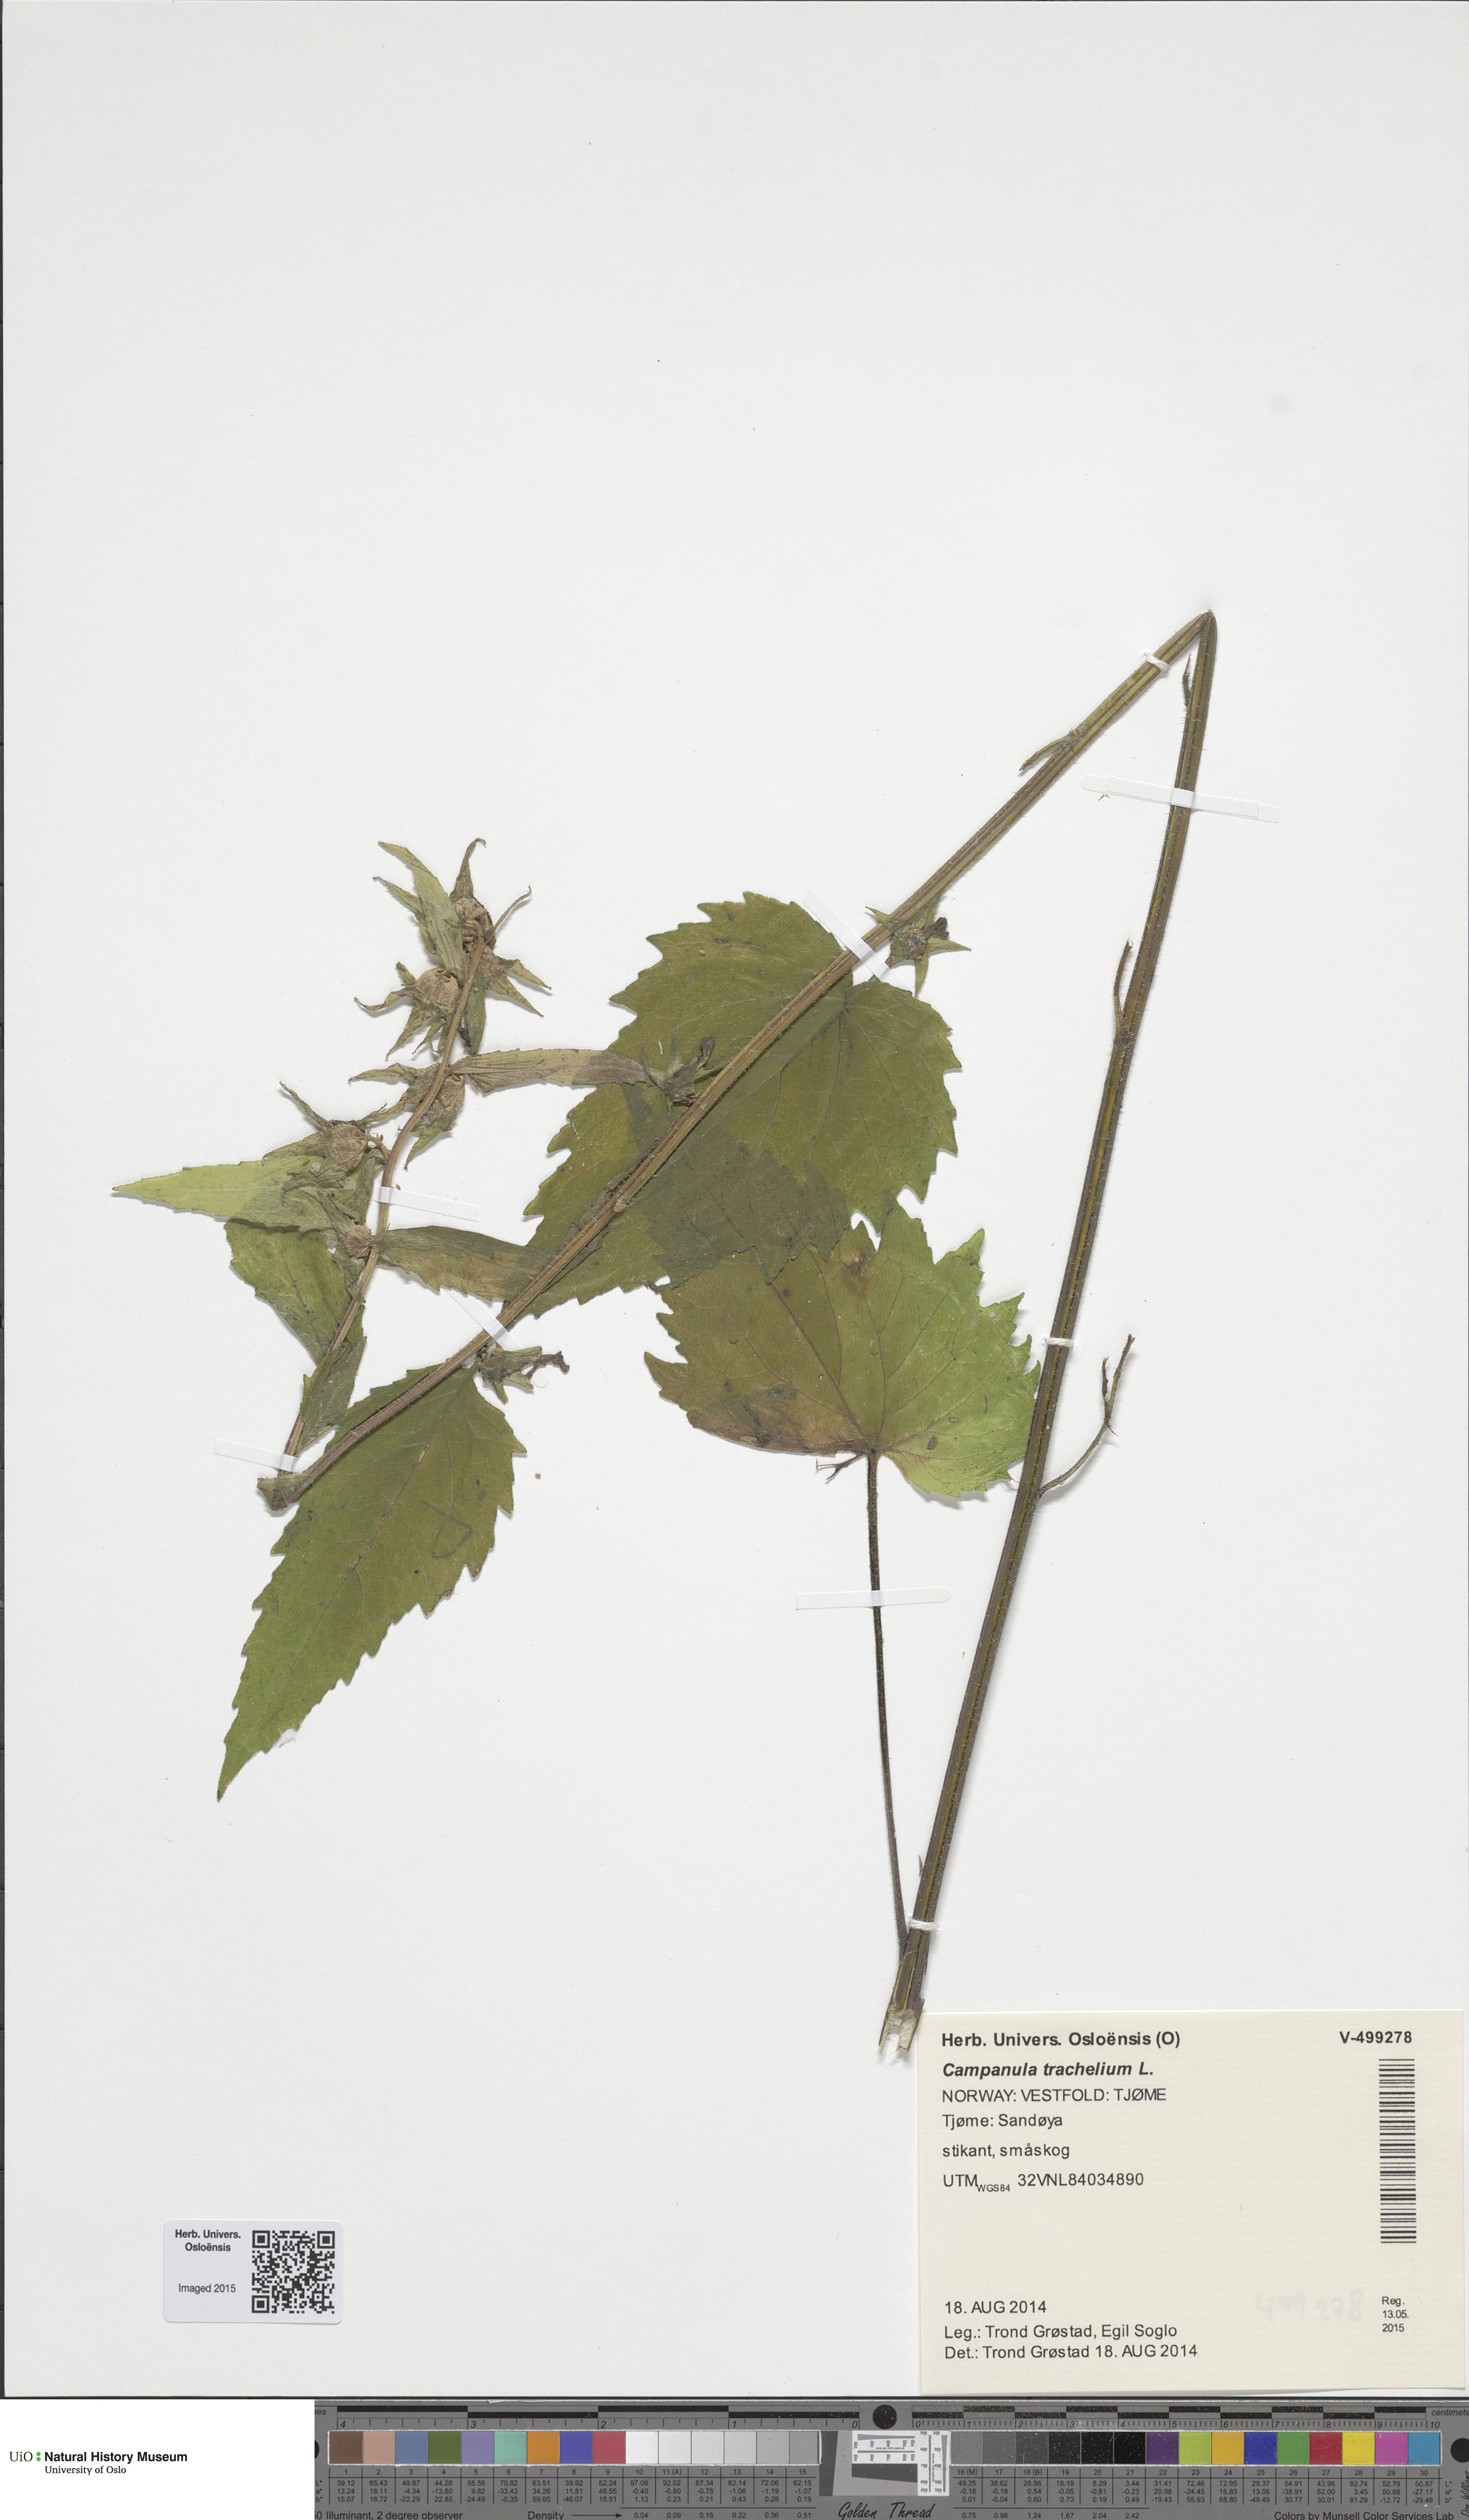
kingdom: Plantae
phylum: Tracheophyta
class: Magnoliopsida
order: Asterales
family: Campanulaceae
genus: Campanula
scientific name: Campanula trachelium
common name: Nettle-leaved bellflower
